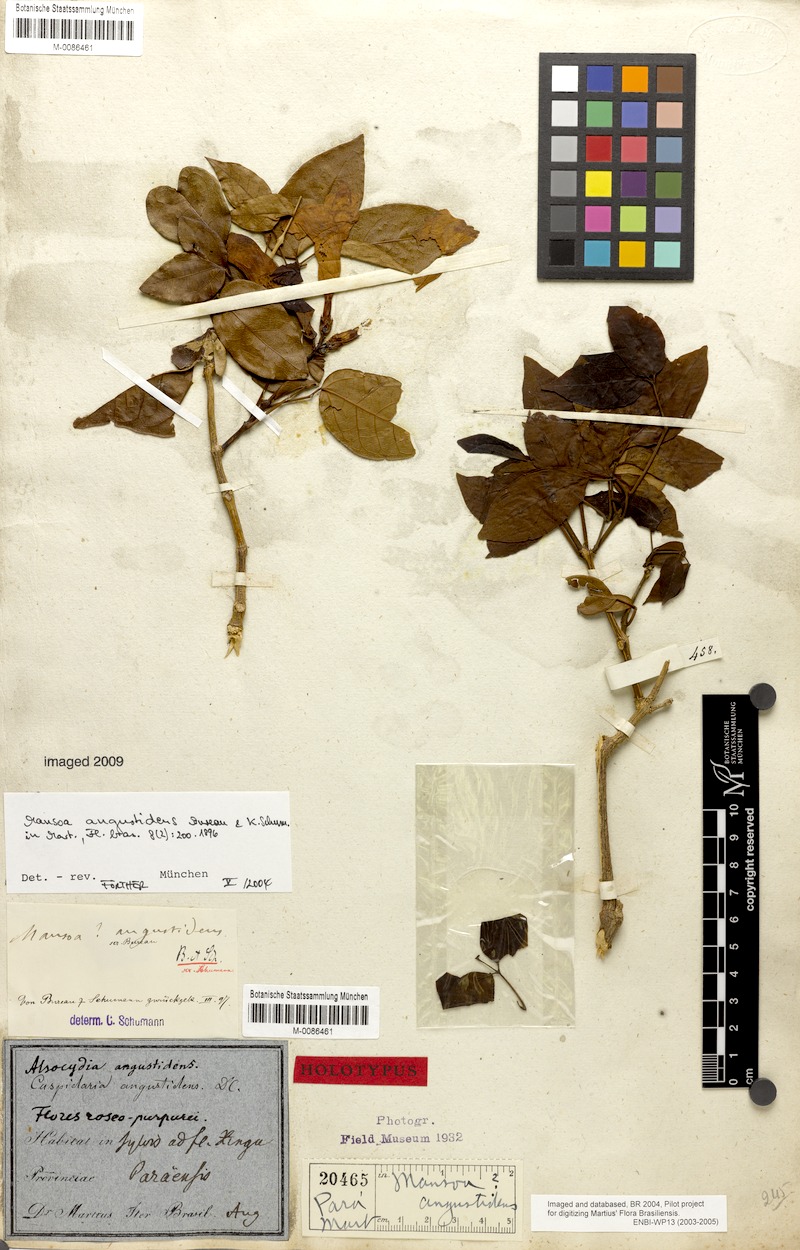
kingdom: Plantae
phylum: Tracheophyta
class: Magnoliopsida
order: Lamiales
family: Bignoniaceae
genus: Mansoa
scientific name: Mansoa angustidens
